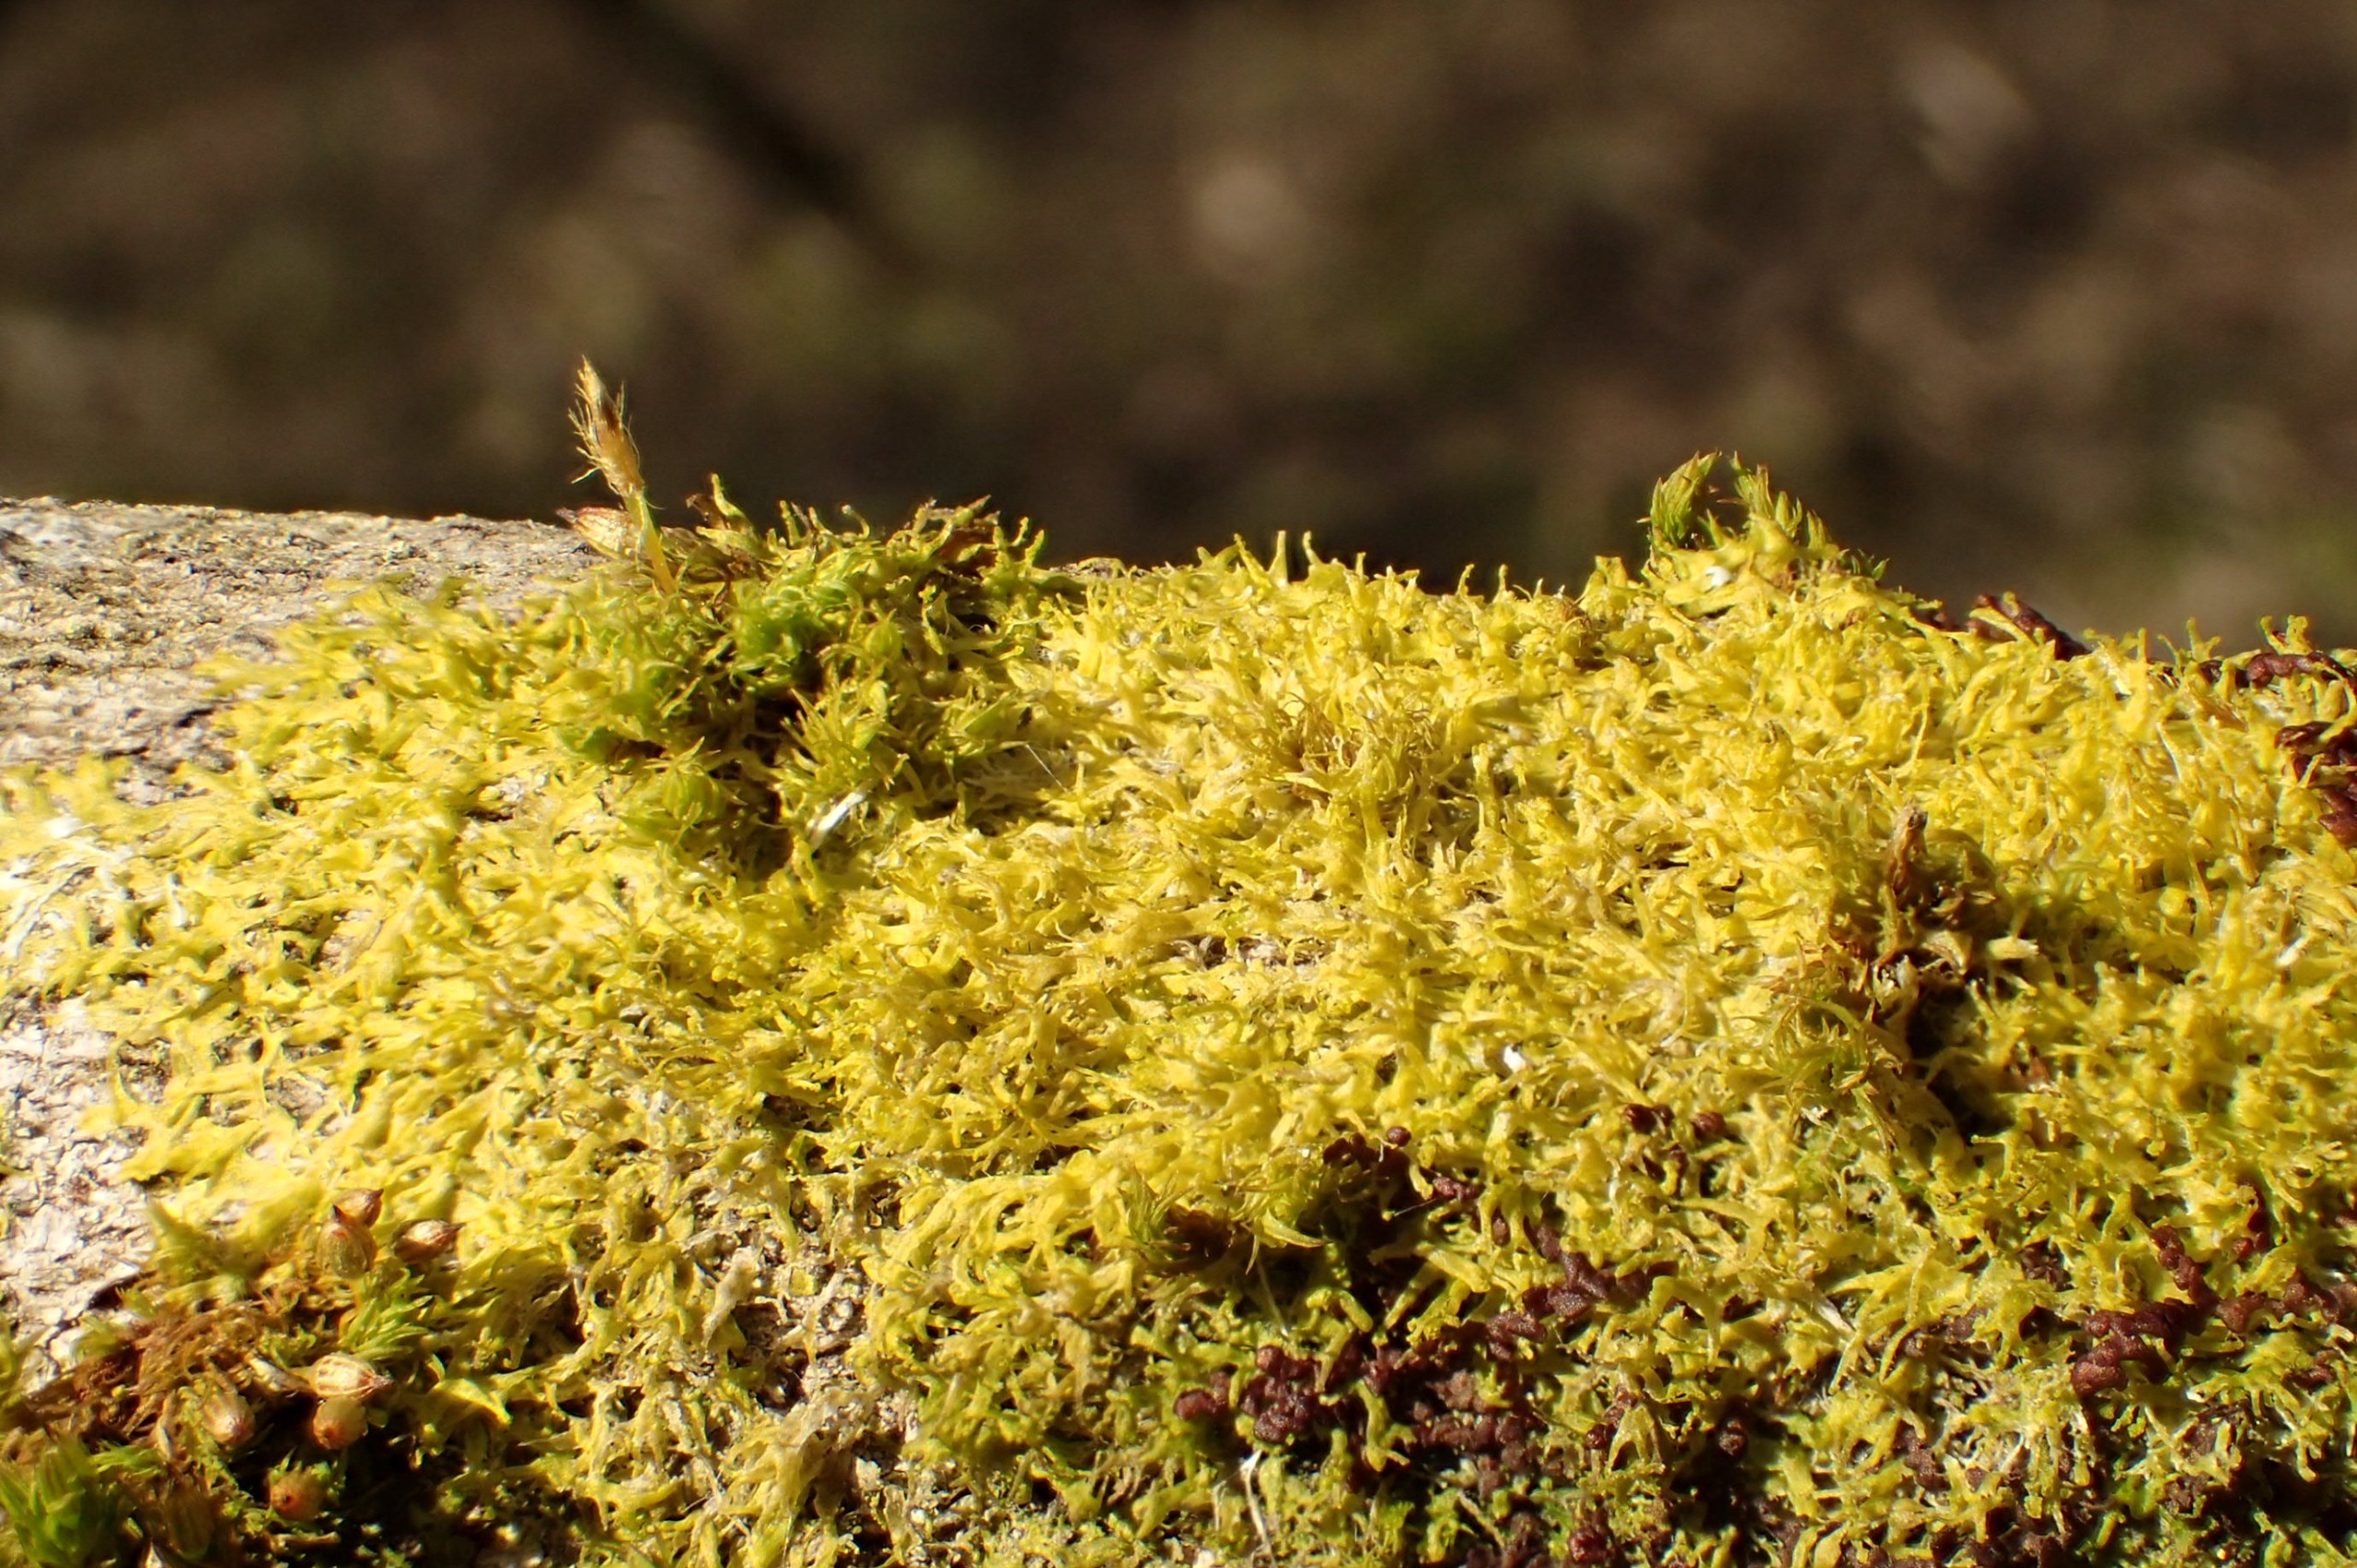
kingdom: Plantae
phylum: Marchantiophyta
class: Jungermanniopsida
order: Metzgeriales
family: Aneuraceae
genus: Riccardia
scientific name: Riccardia palmata
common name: Blågrøn gaffelløv
